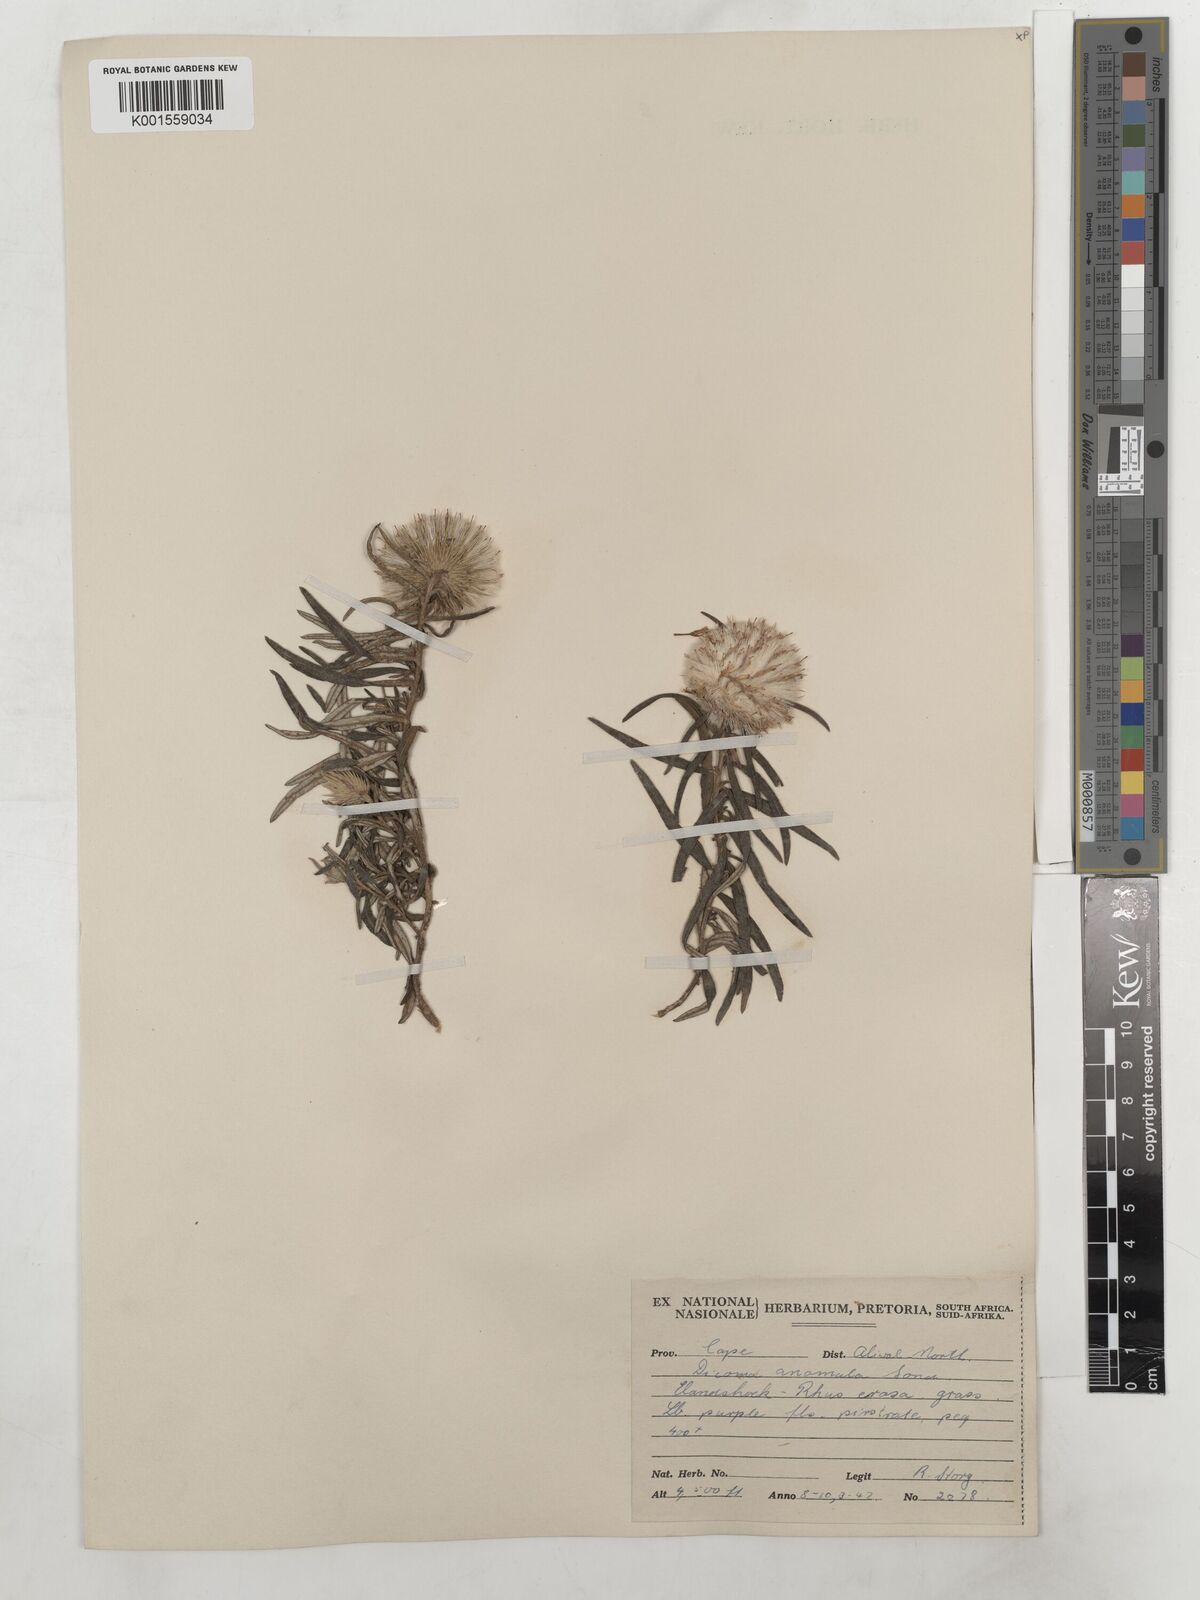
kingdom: Plantae
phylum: Tracheophyta
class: Magnoliopsida
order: Asterales
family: Asteraceae
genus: Dicoma
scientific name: Dicoma anomala
